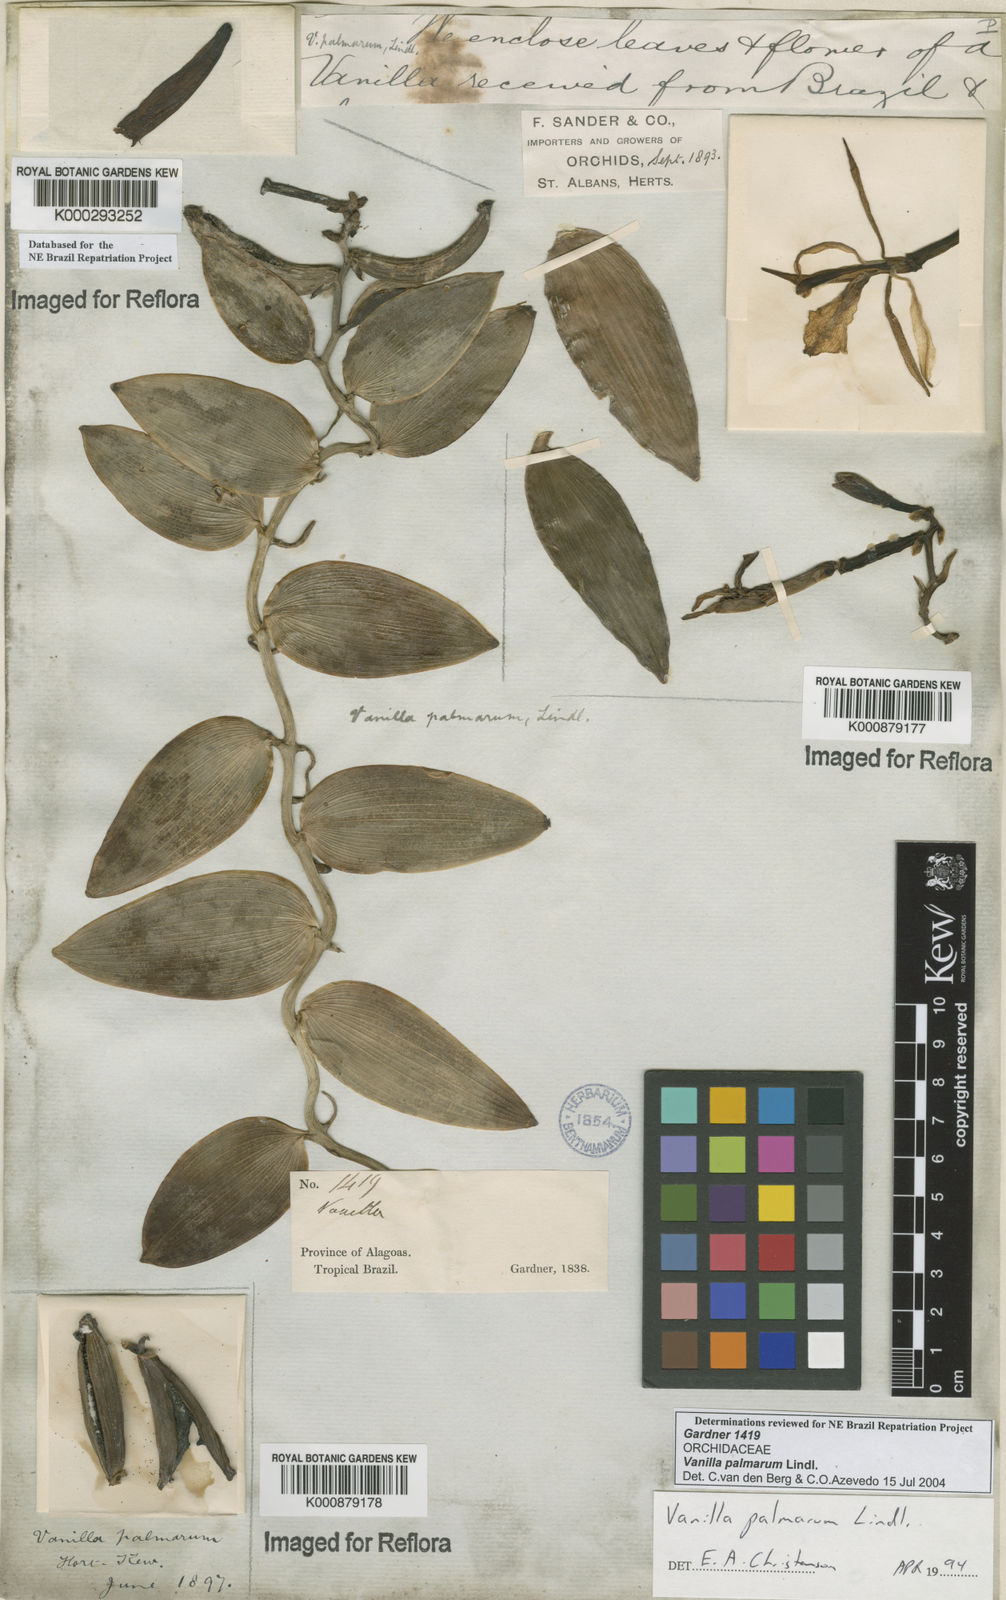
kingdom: Plantae
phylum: Tracheophyta
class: Liliopsida
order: Asparagales
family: Orchidaceae
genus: Vanilla
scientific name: Vanilla palmarum
